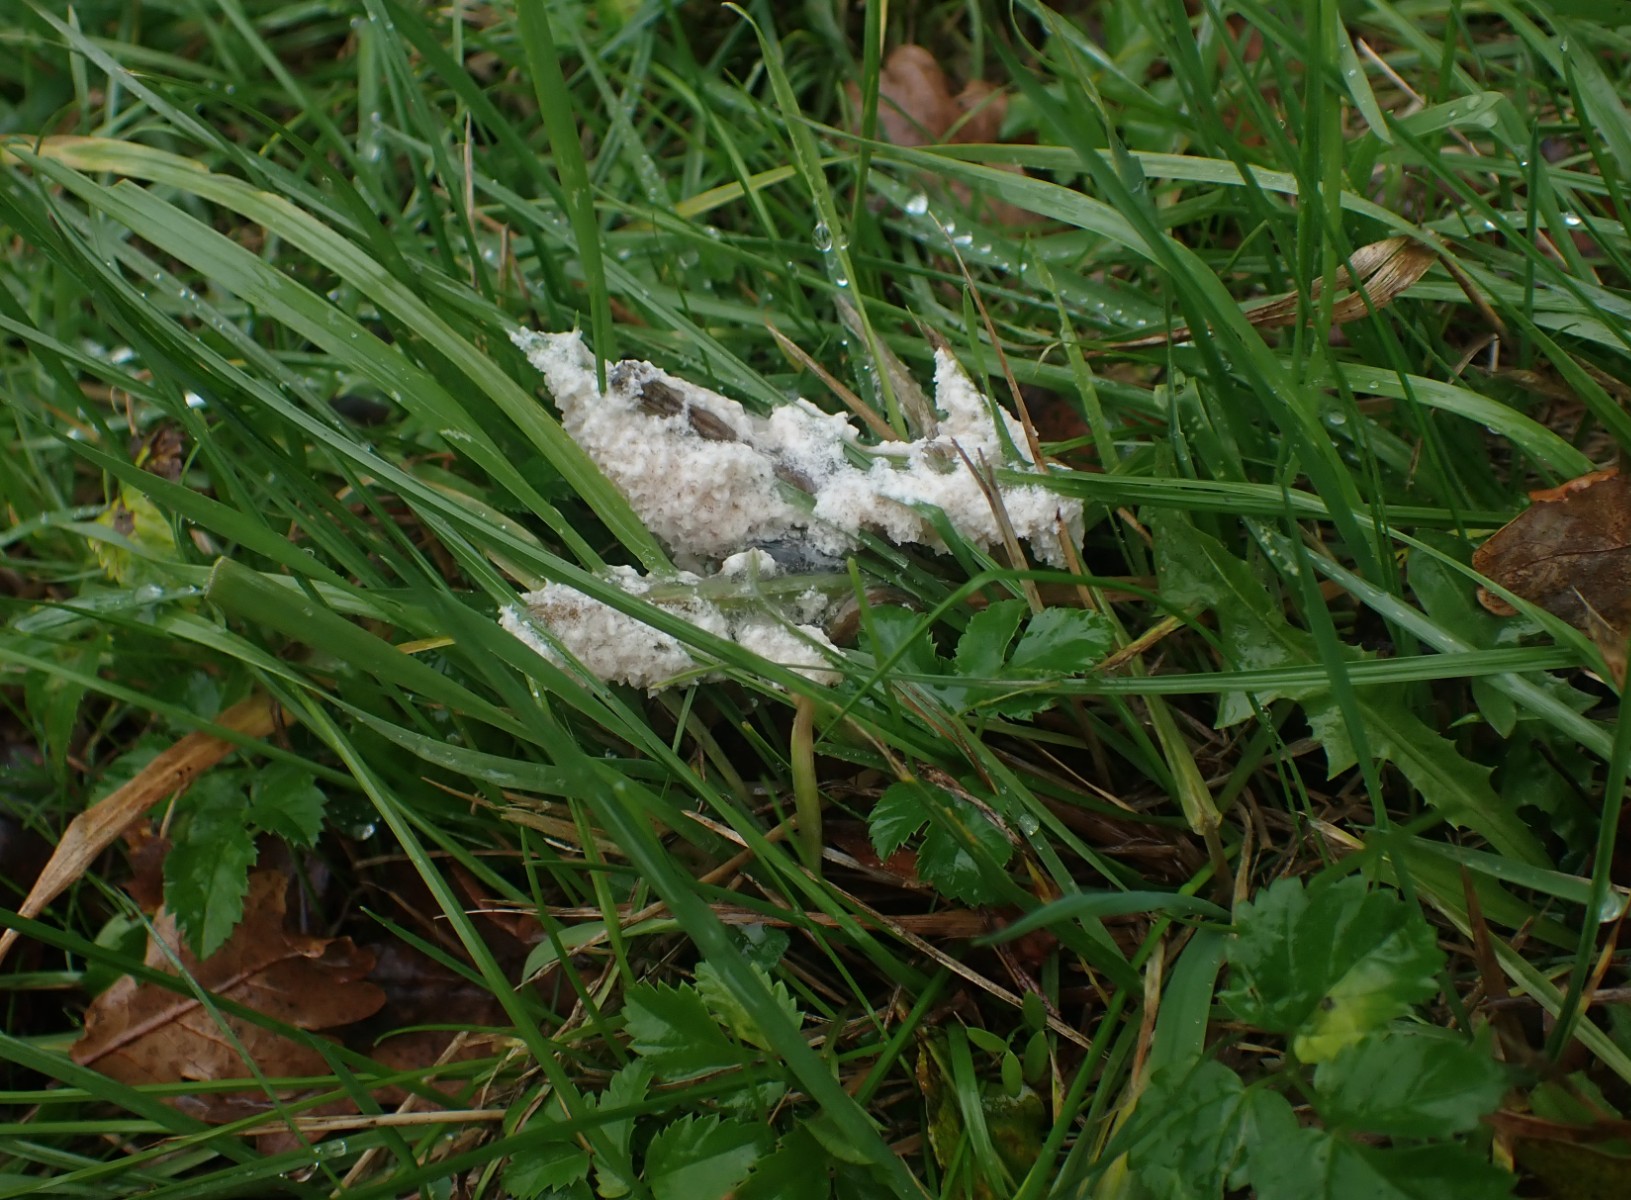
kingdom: Protozoa
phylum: Mycetozoa
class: Myxomycetes
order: Physarales
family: Physaraceae
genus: Didymium
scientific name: Didymium
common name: urteskum
